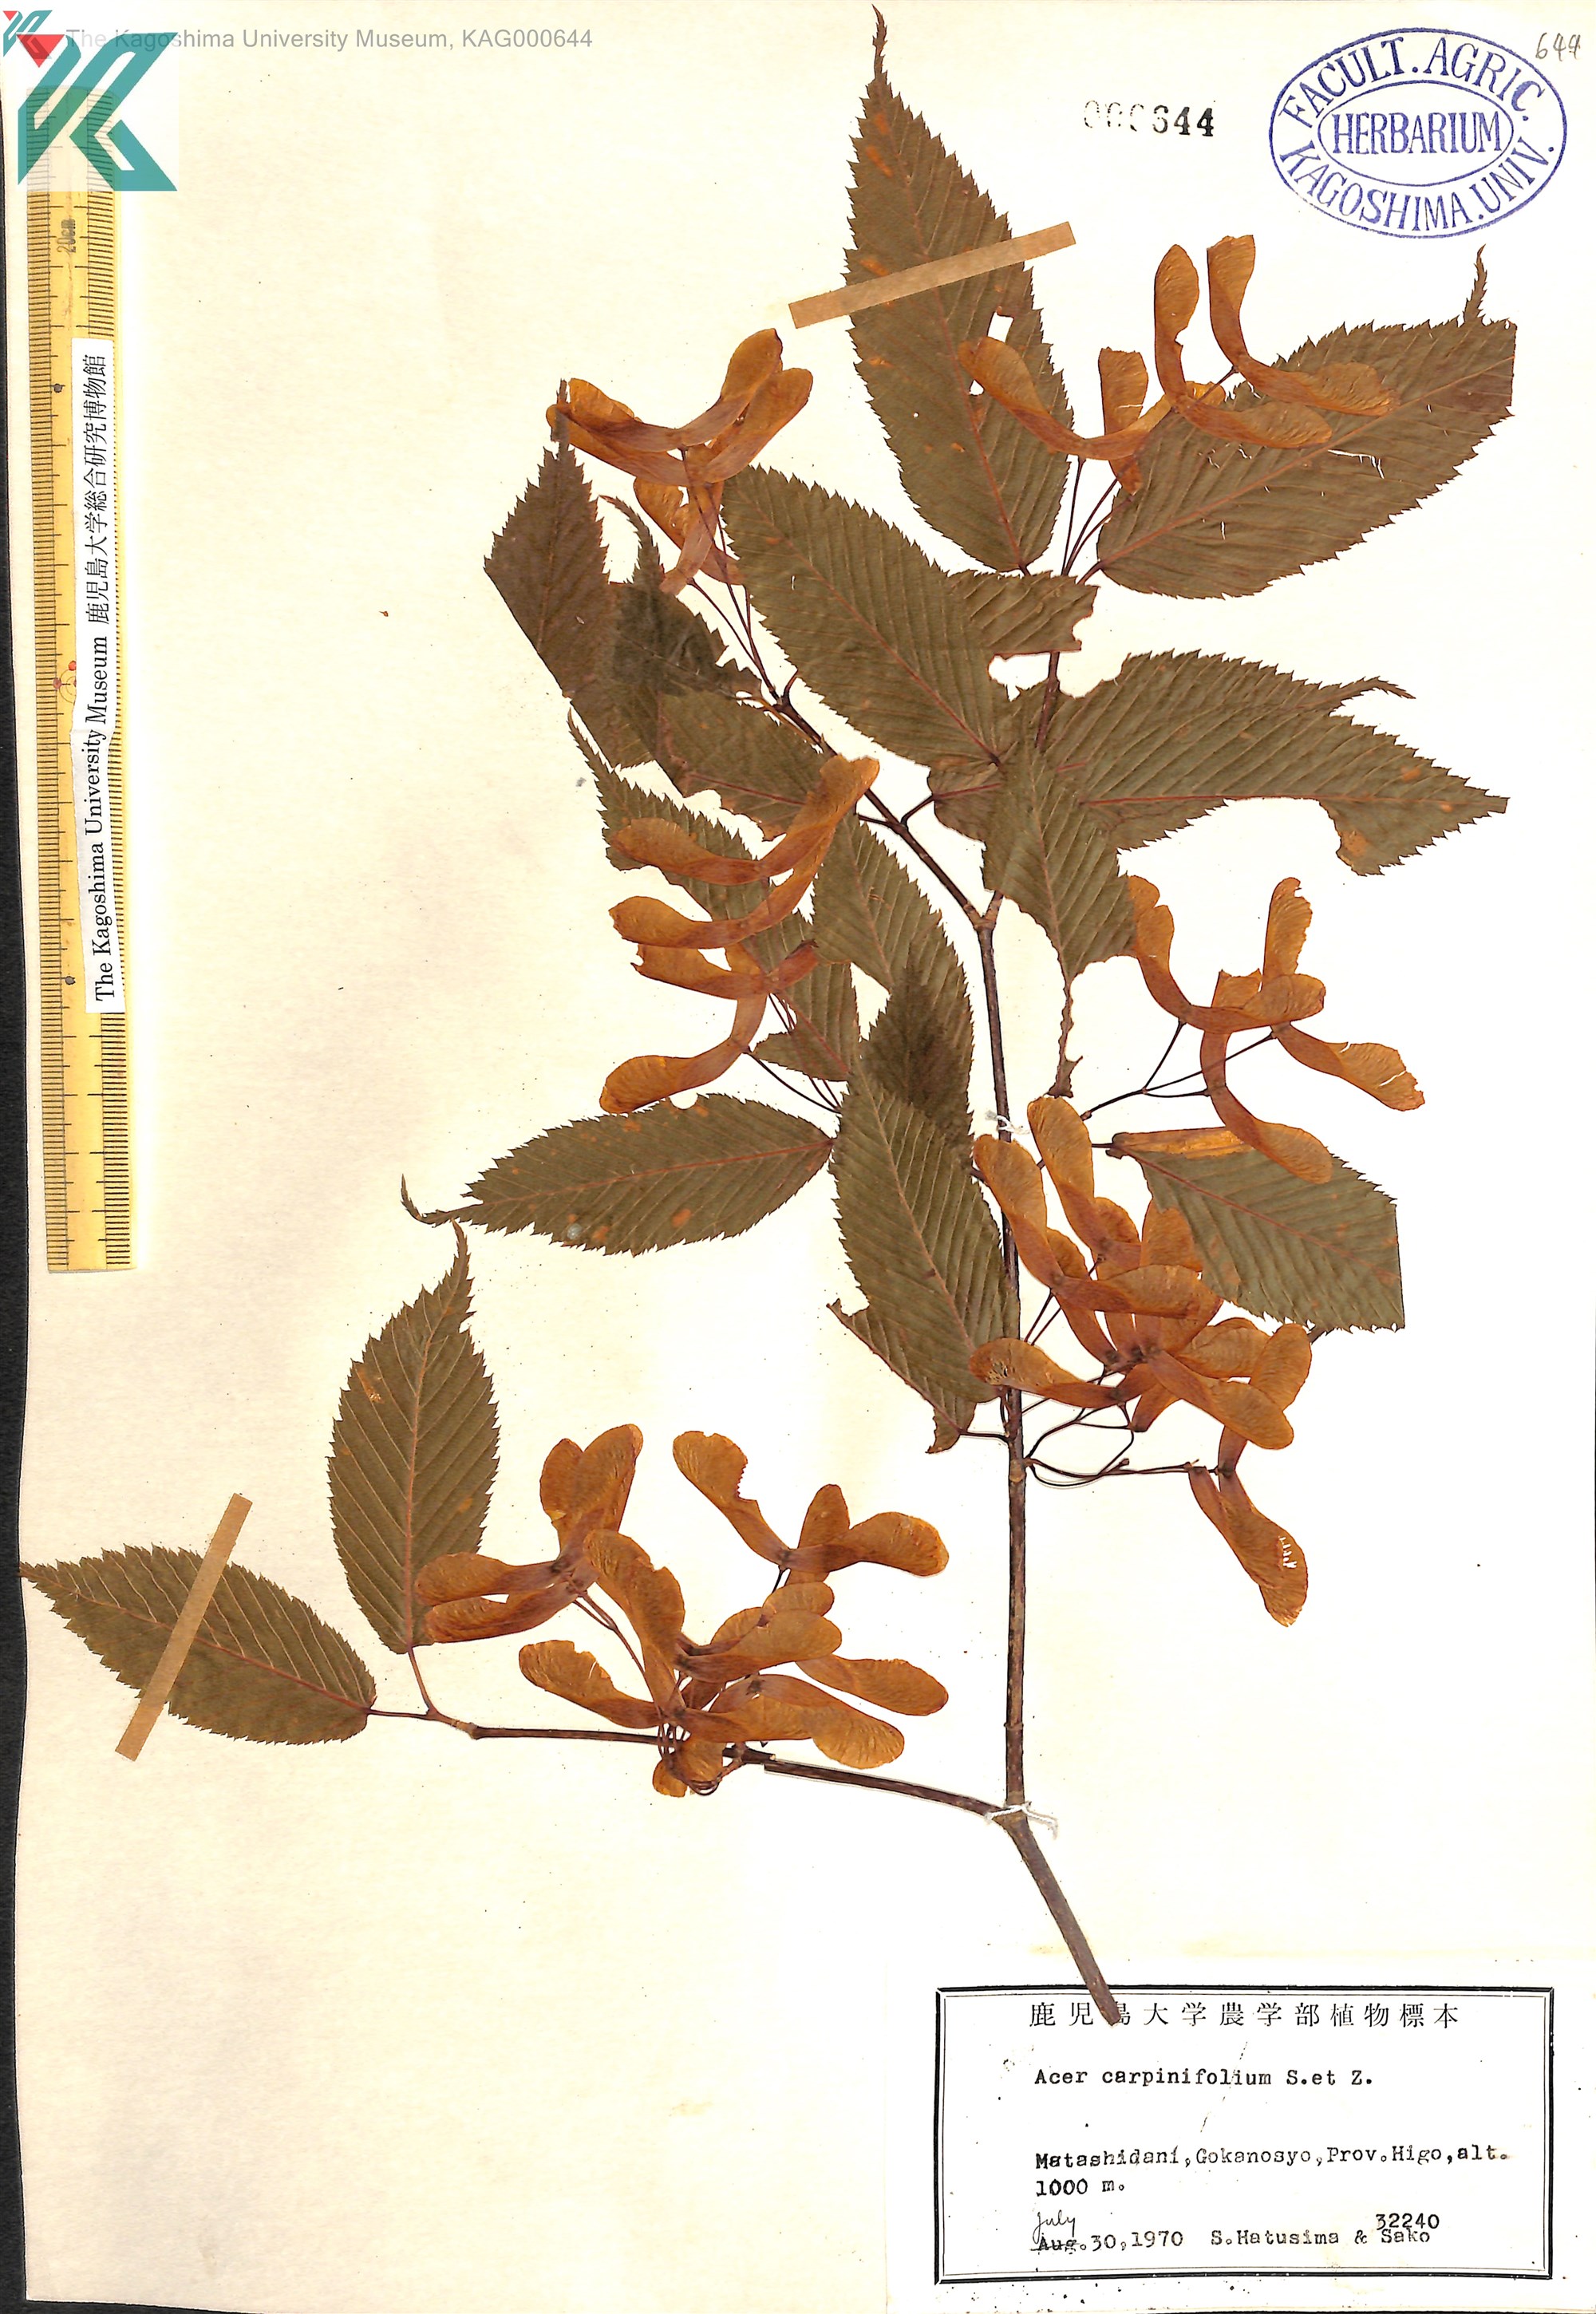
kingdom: Plantae
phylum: Tracheophyta
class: Magnoliopsida
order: Sapindales
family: Sapindaceae
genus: Acer
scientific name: Acer carpinifolium
